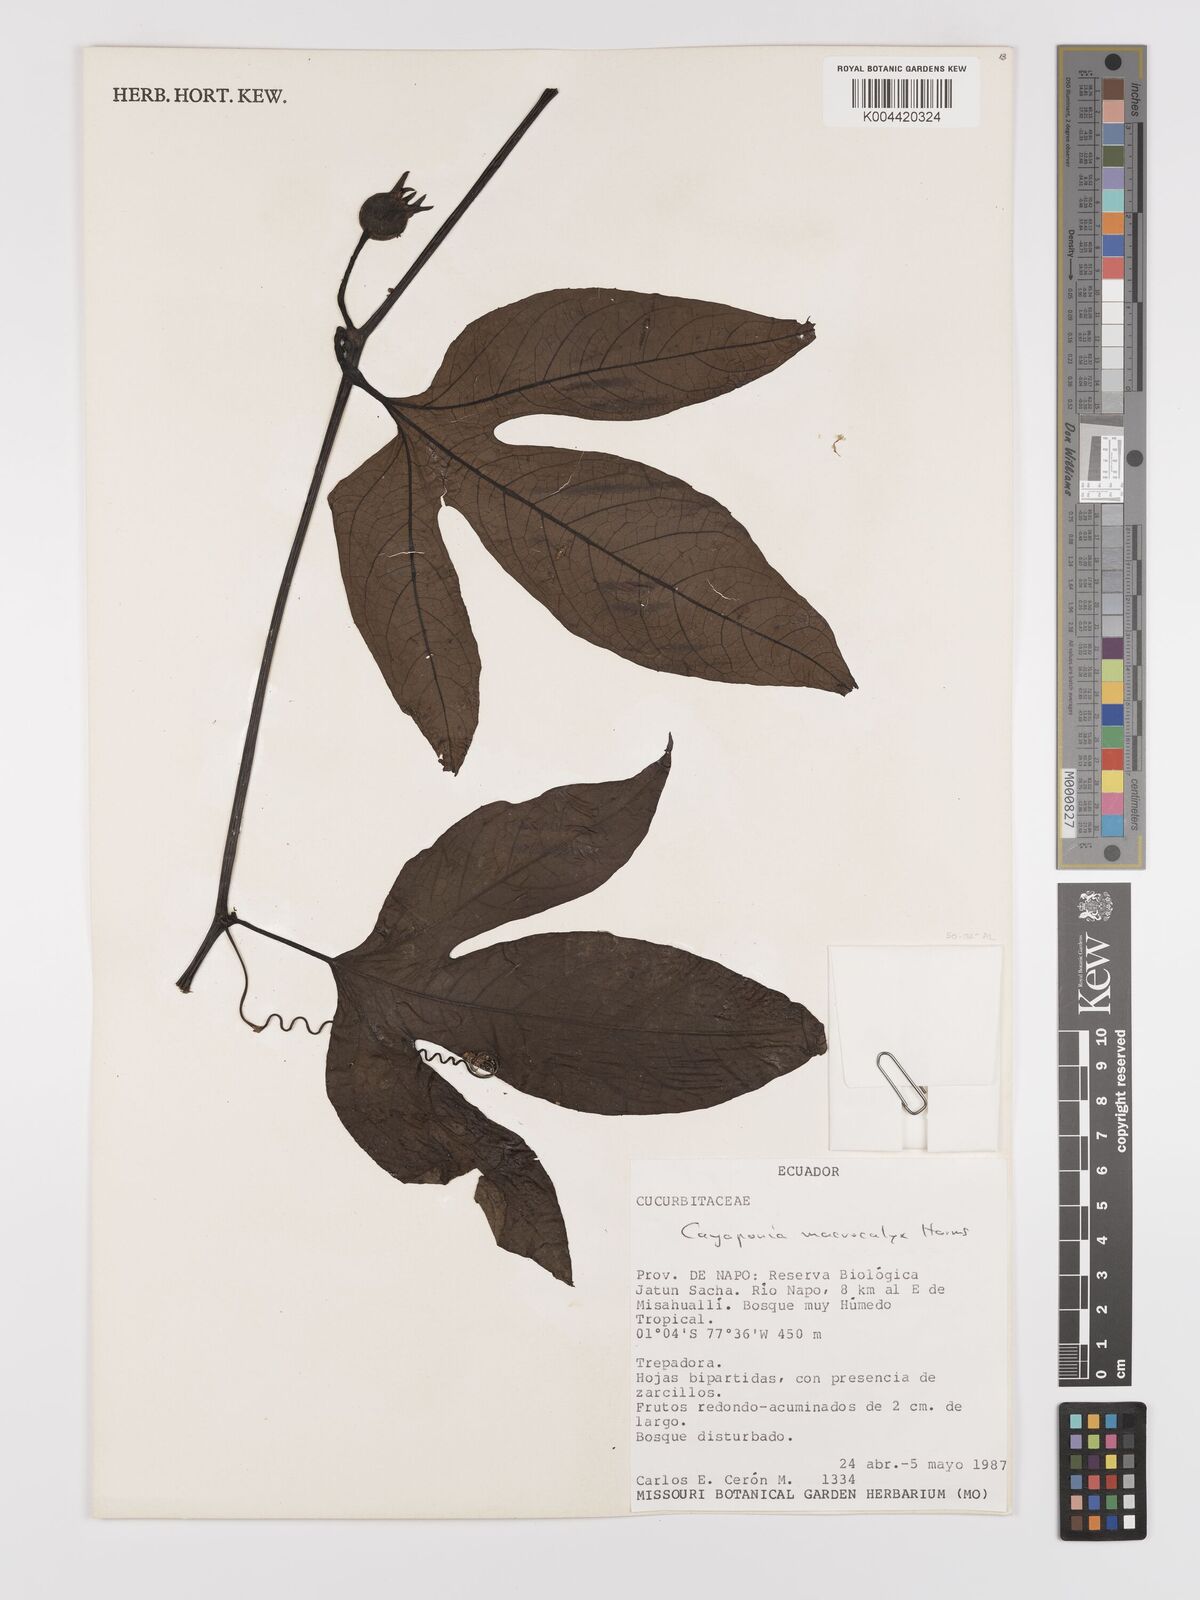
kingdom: Plantae
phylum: Tracheophyta
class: Magnoliopsida
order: Cucurbitales
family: Cucurbitaceae
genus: Cayaponia
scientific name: Cayaponia macrocalyx
